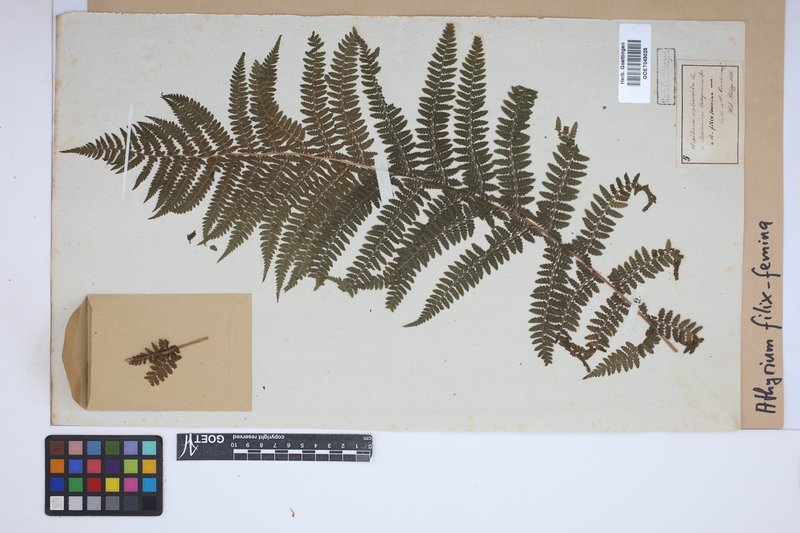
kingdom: Plantae
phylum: Tracheophyta
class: Polypodiopsida
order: Polypodiales
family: Athyriaceae
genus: Athyrium
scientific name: Athyrium filix-femina
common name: Lady fern
